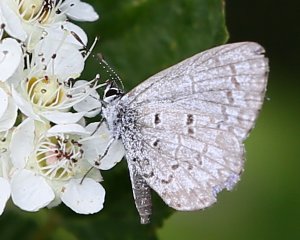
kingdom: Animalia
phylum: Arthropoda
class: Insecta
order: Lepidoptera
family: Lycaenidae
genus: Celastrina
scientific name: Celastrina lucia
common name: Northern Spring Azure
